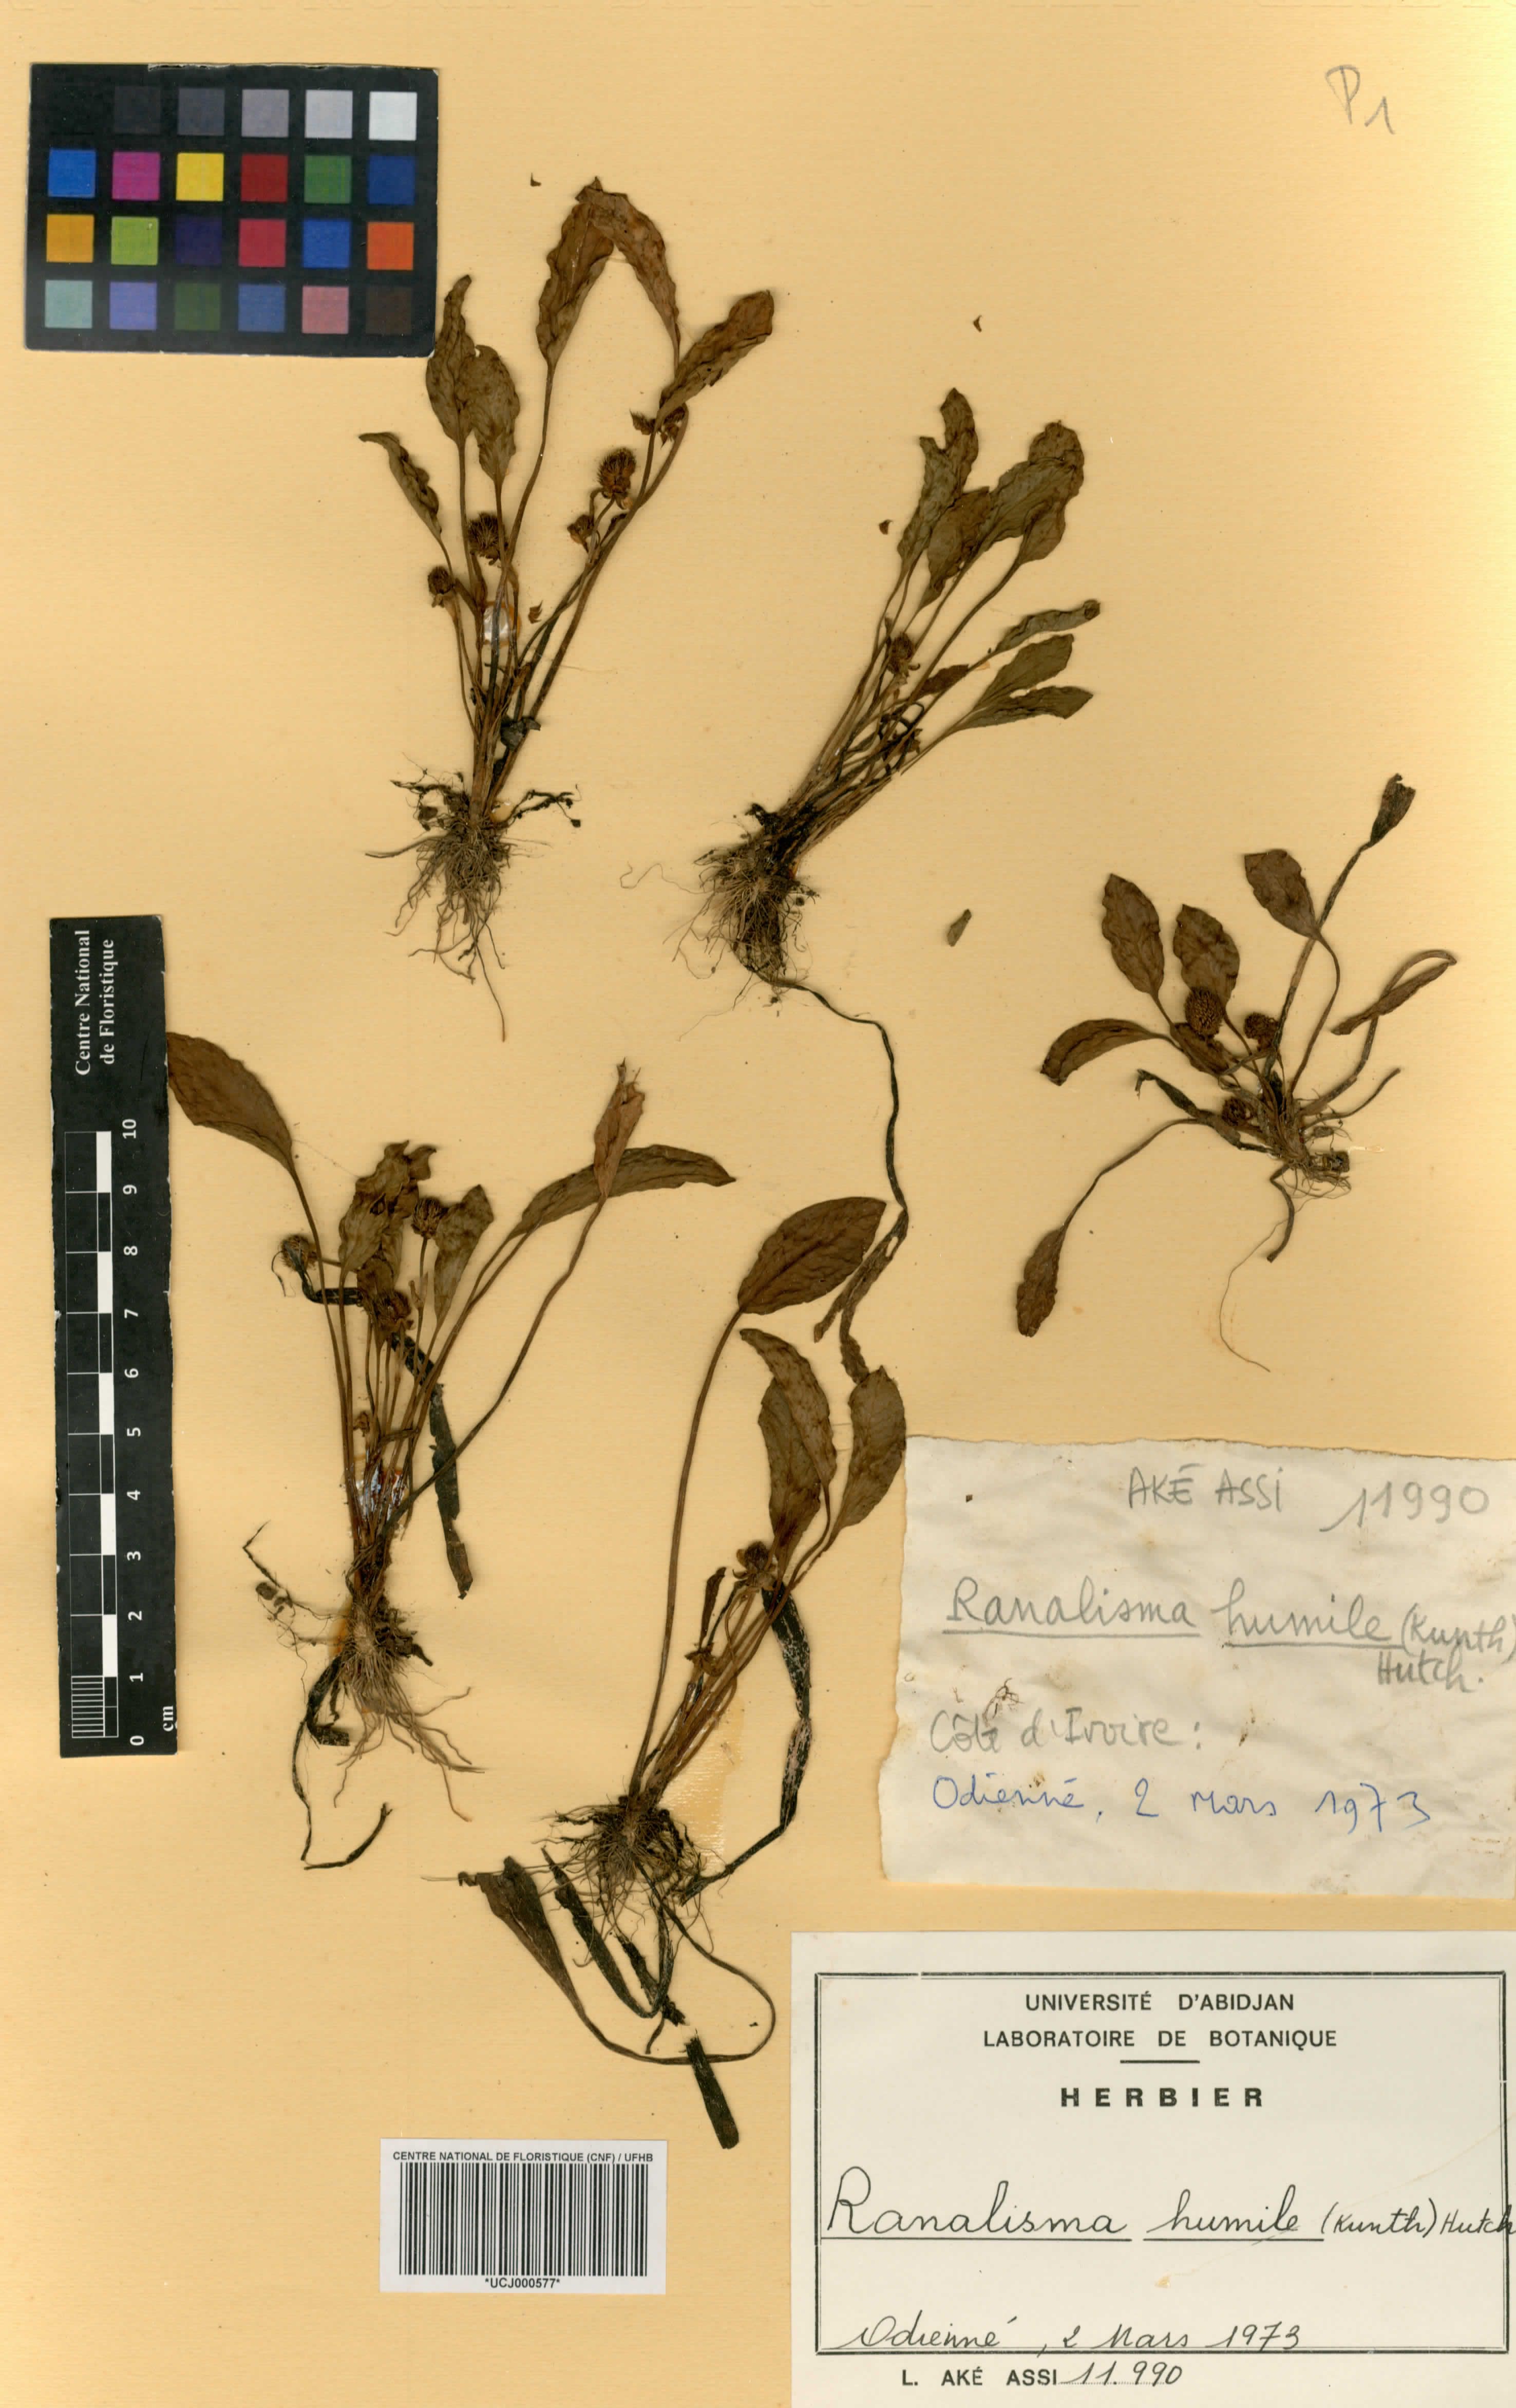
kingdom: Plantae
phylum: Tracheophyta
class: Liliopsida
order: Alismatales
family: Alismataceae
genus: Ranalisma
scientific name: Ranalisma humile
